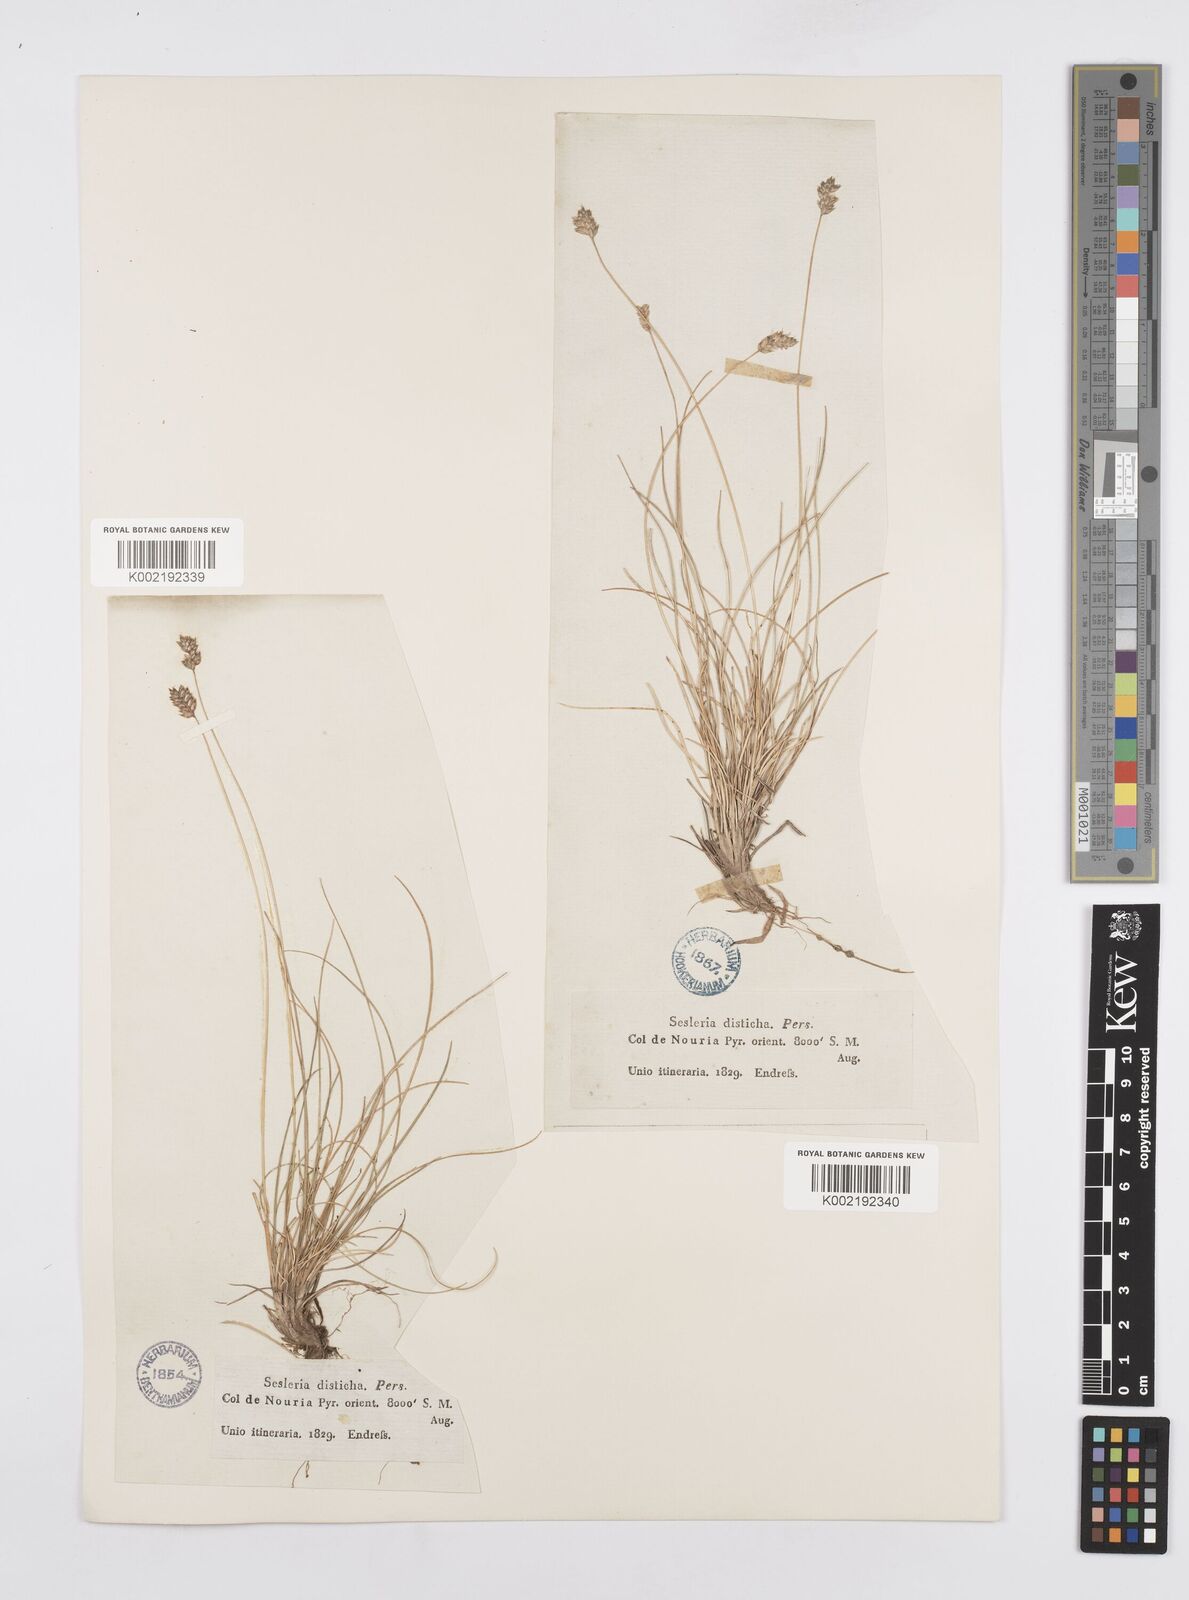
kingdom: Plantae
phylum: Tracheophyta
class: Liliopsida
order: Poales
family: Poaceae
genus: Oreochloa
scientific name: Oreochloa elegans
